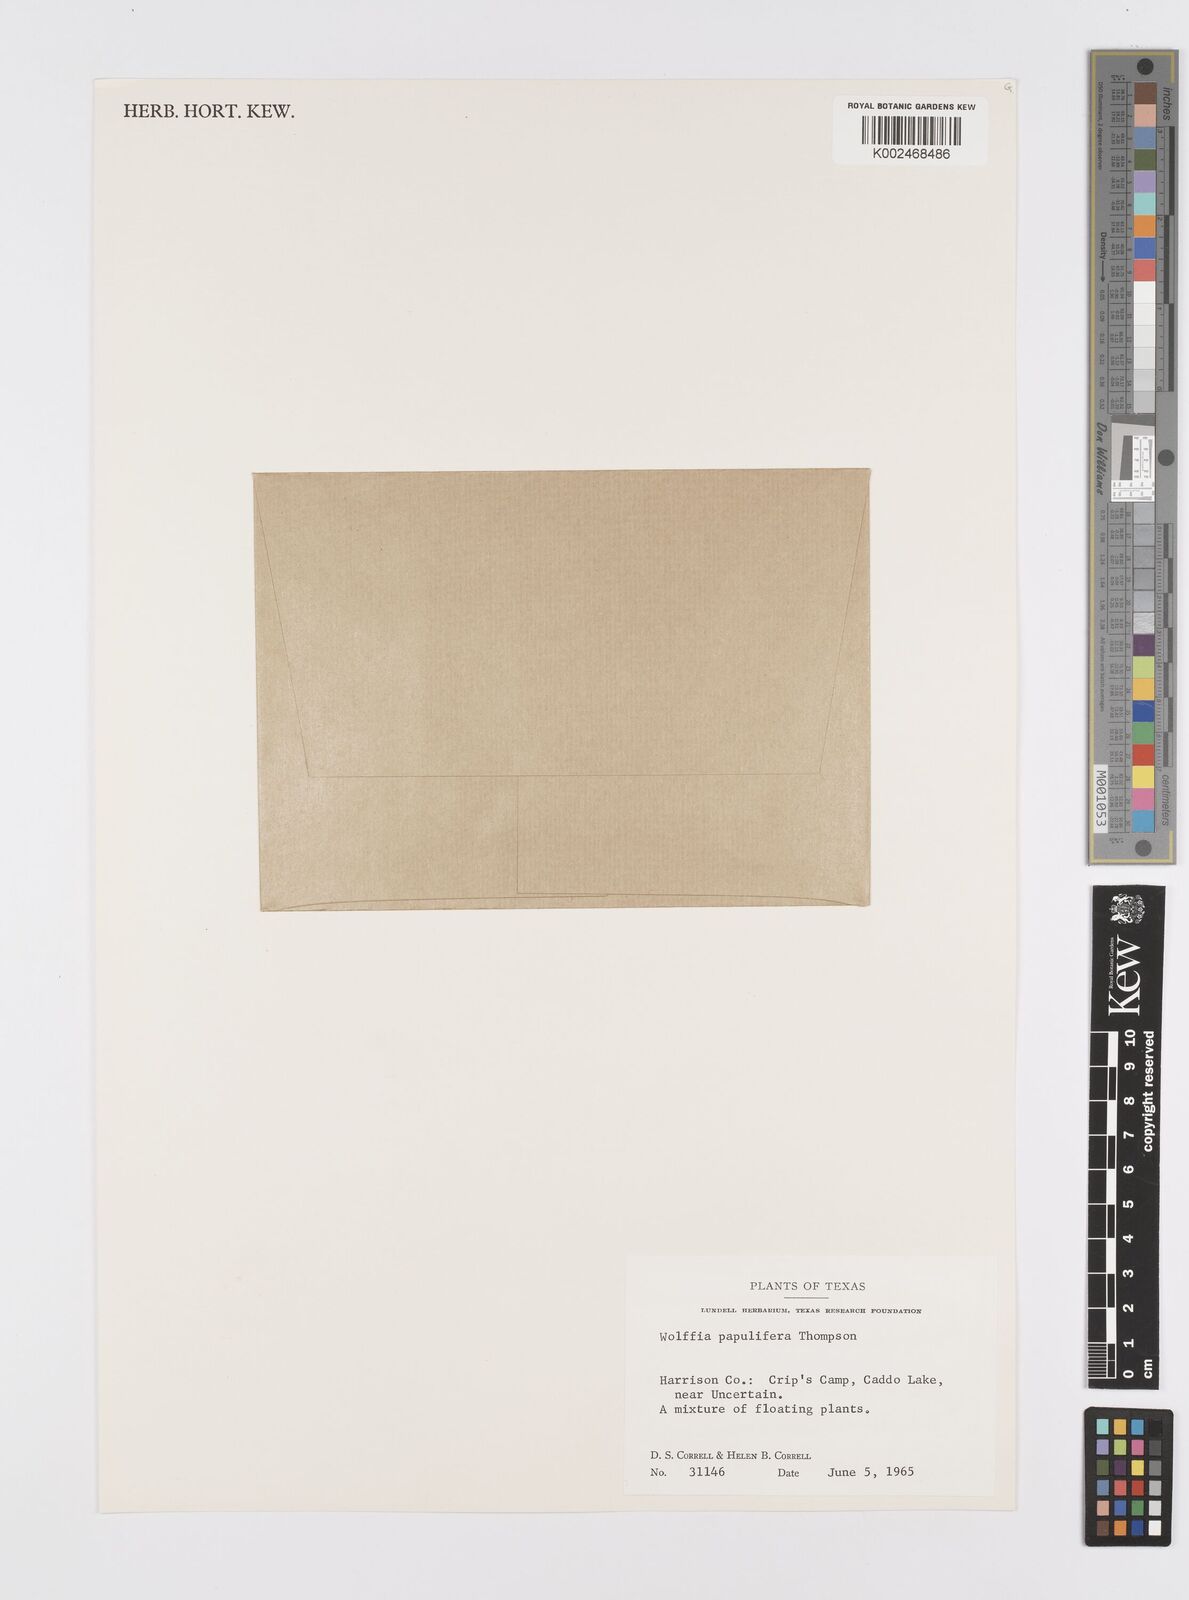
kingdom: Plantae
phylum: Tracheophyta
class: Liliopsida
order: Alismatales
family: Araceae
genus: Wolffia
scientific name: Wolffia brasiliensis
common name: Brazilian watermeal
